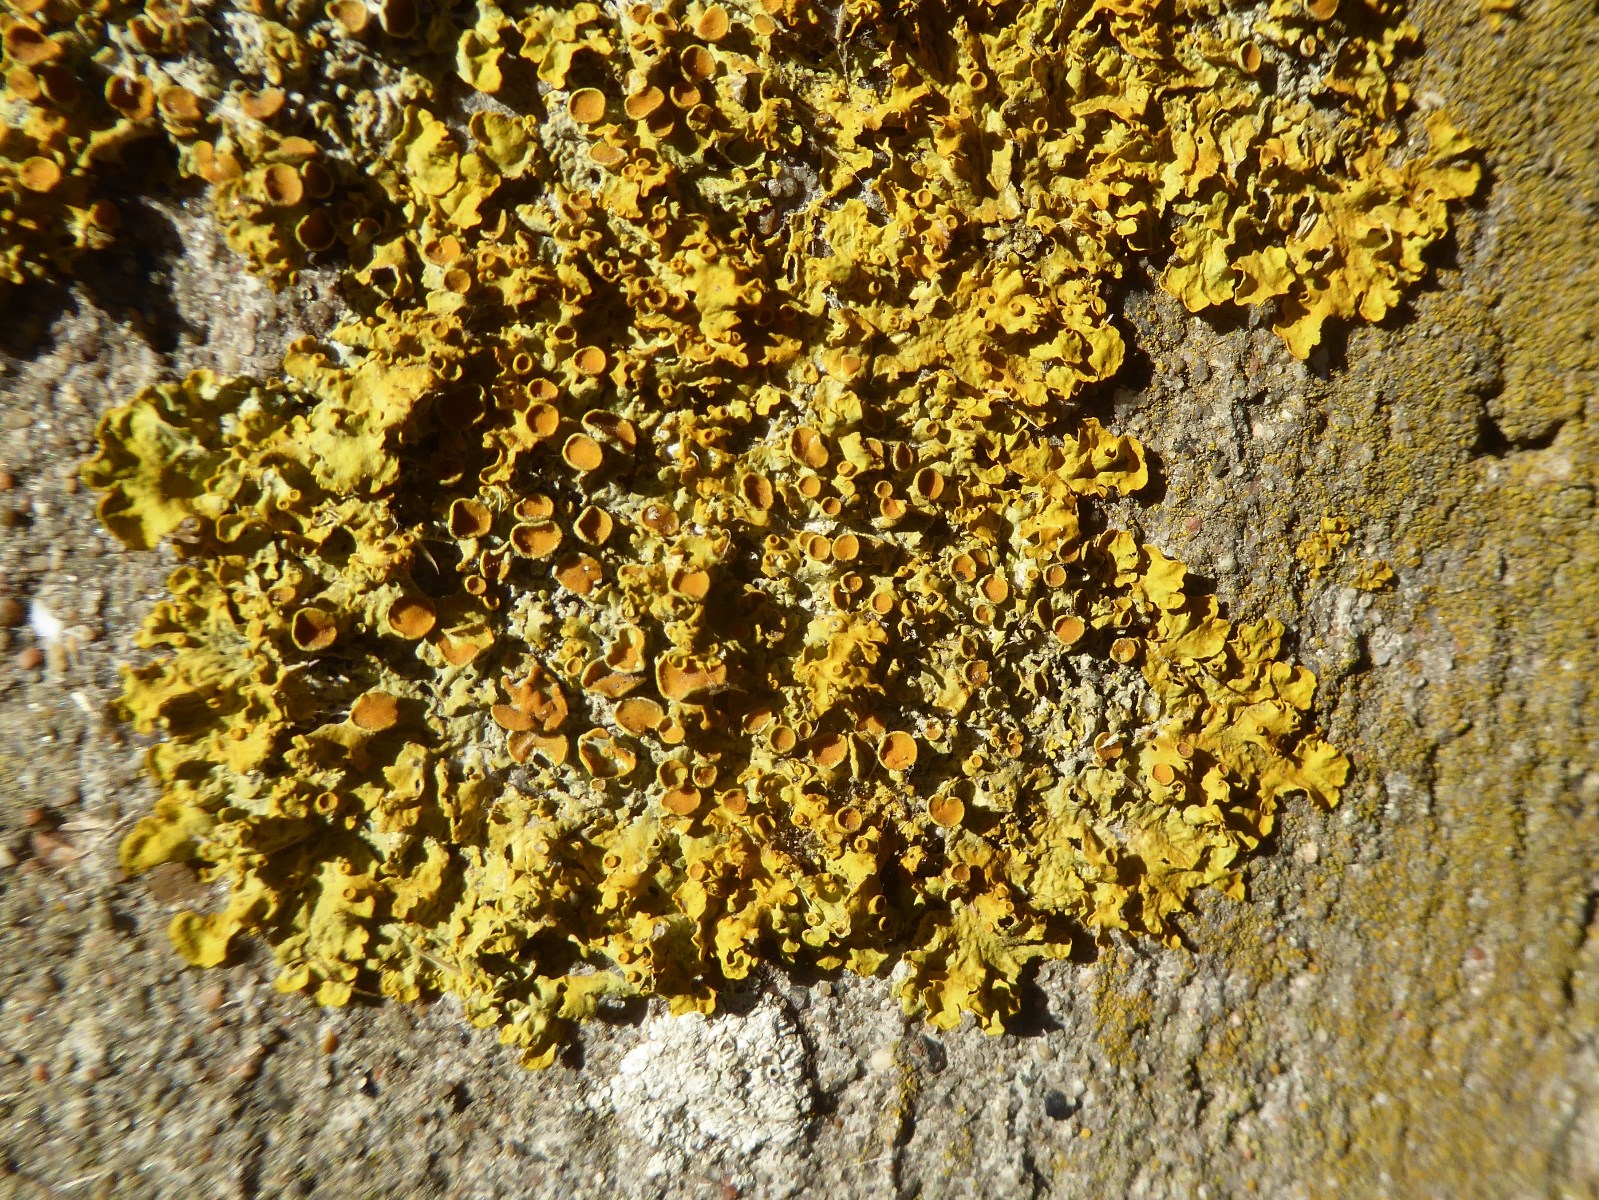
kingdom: Fungi
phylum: Ascomycota
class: Lecanoromycetes
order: Teloschistales
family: Teloschistaceae
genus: Xanthoria
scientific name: Xanthoria parietina
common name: almindelig væggelav
